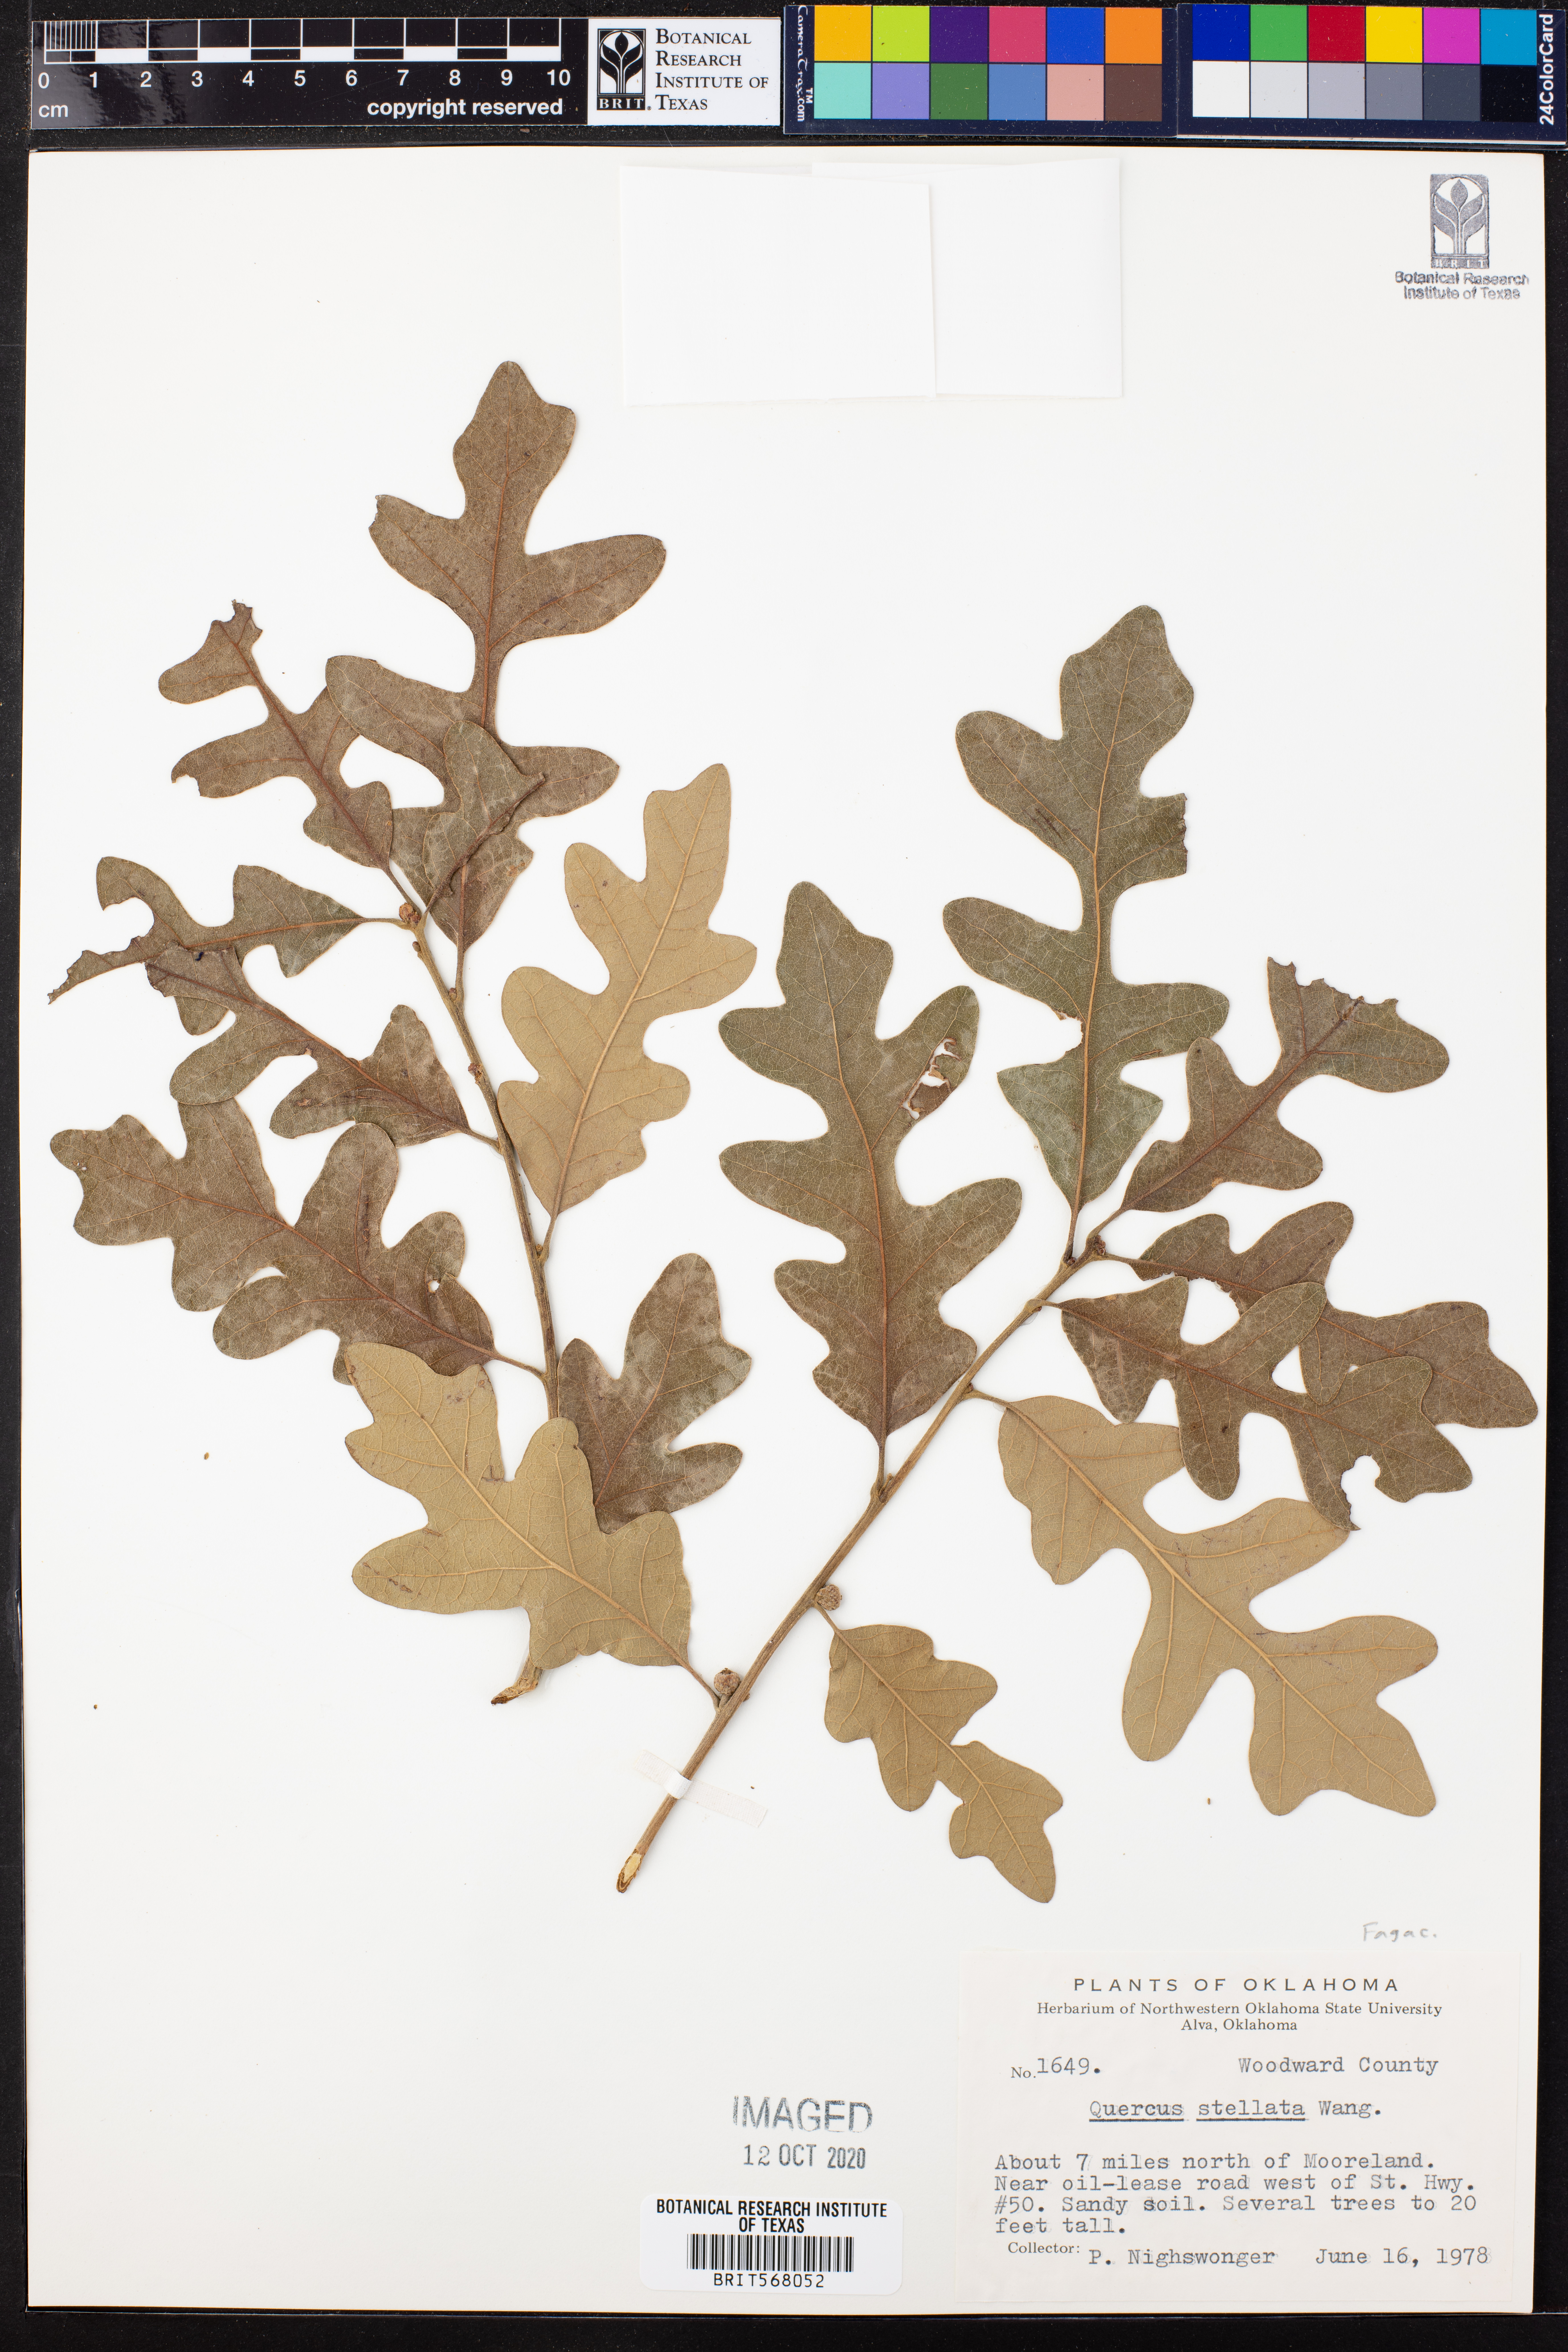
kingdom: Plantae
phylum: Tracheophyta
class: Magnoliopsida
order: Fagales
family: Fagaceae
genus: Quercus
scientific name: Quercus stellata
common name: Post oak
